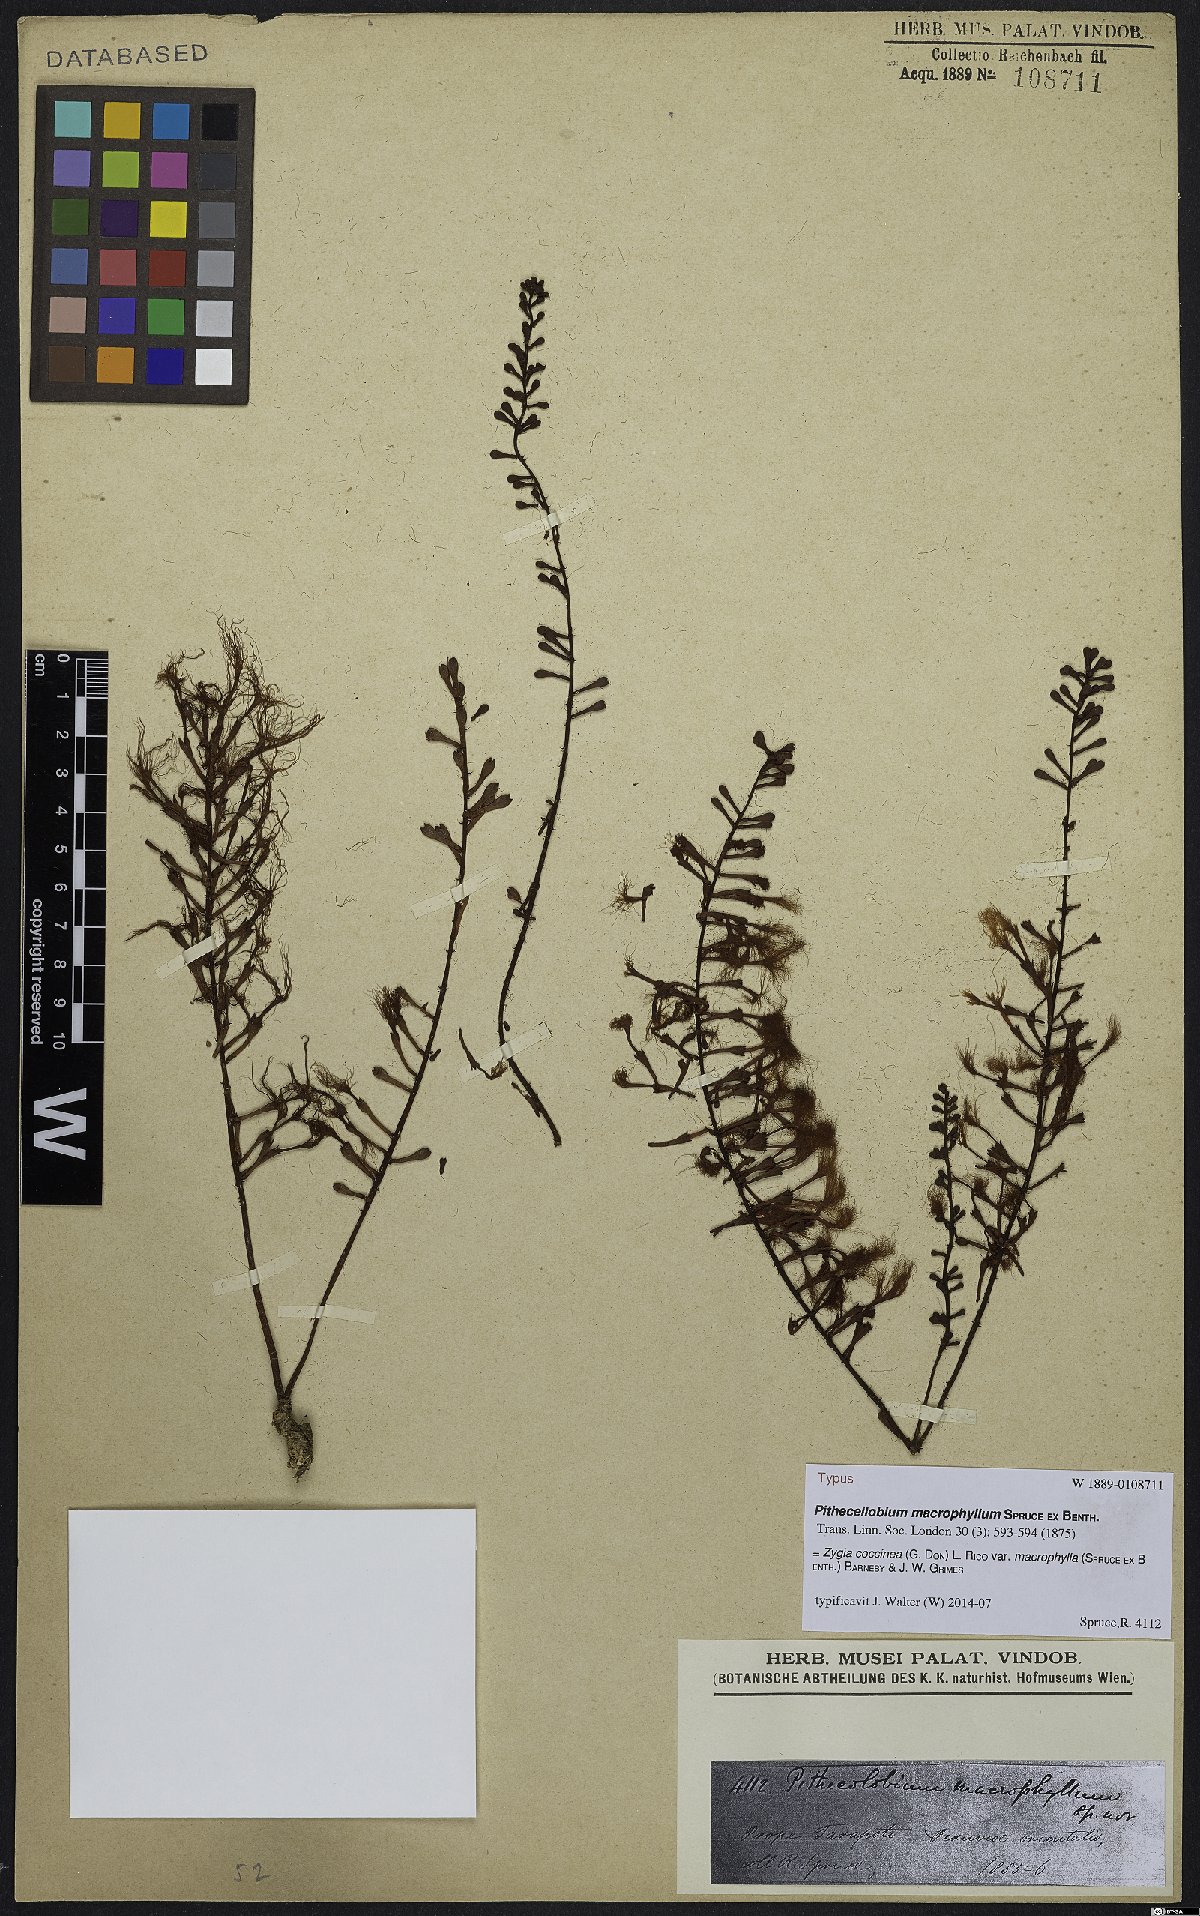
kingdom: Plantae
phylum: Tracheophyta
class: Magnoliopsida
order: Fabales
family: Fabaceae
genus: Zygia
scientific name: Zygia coccinea
